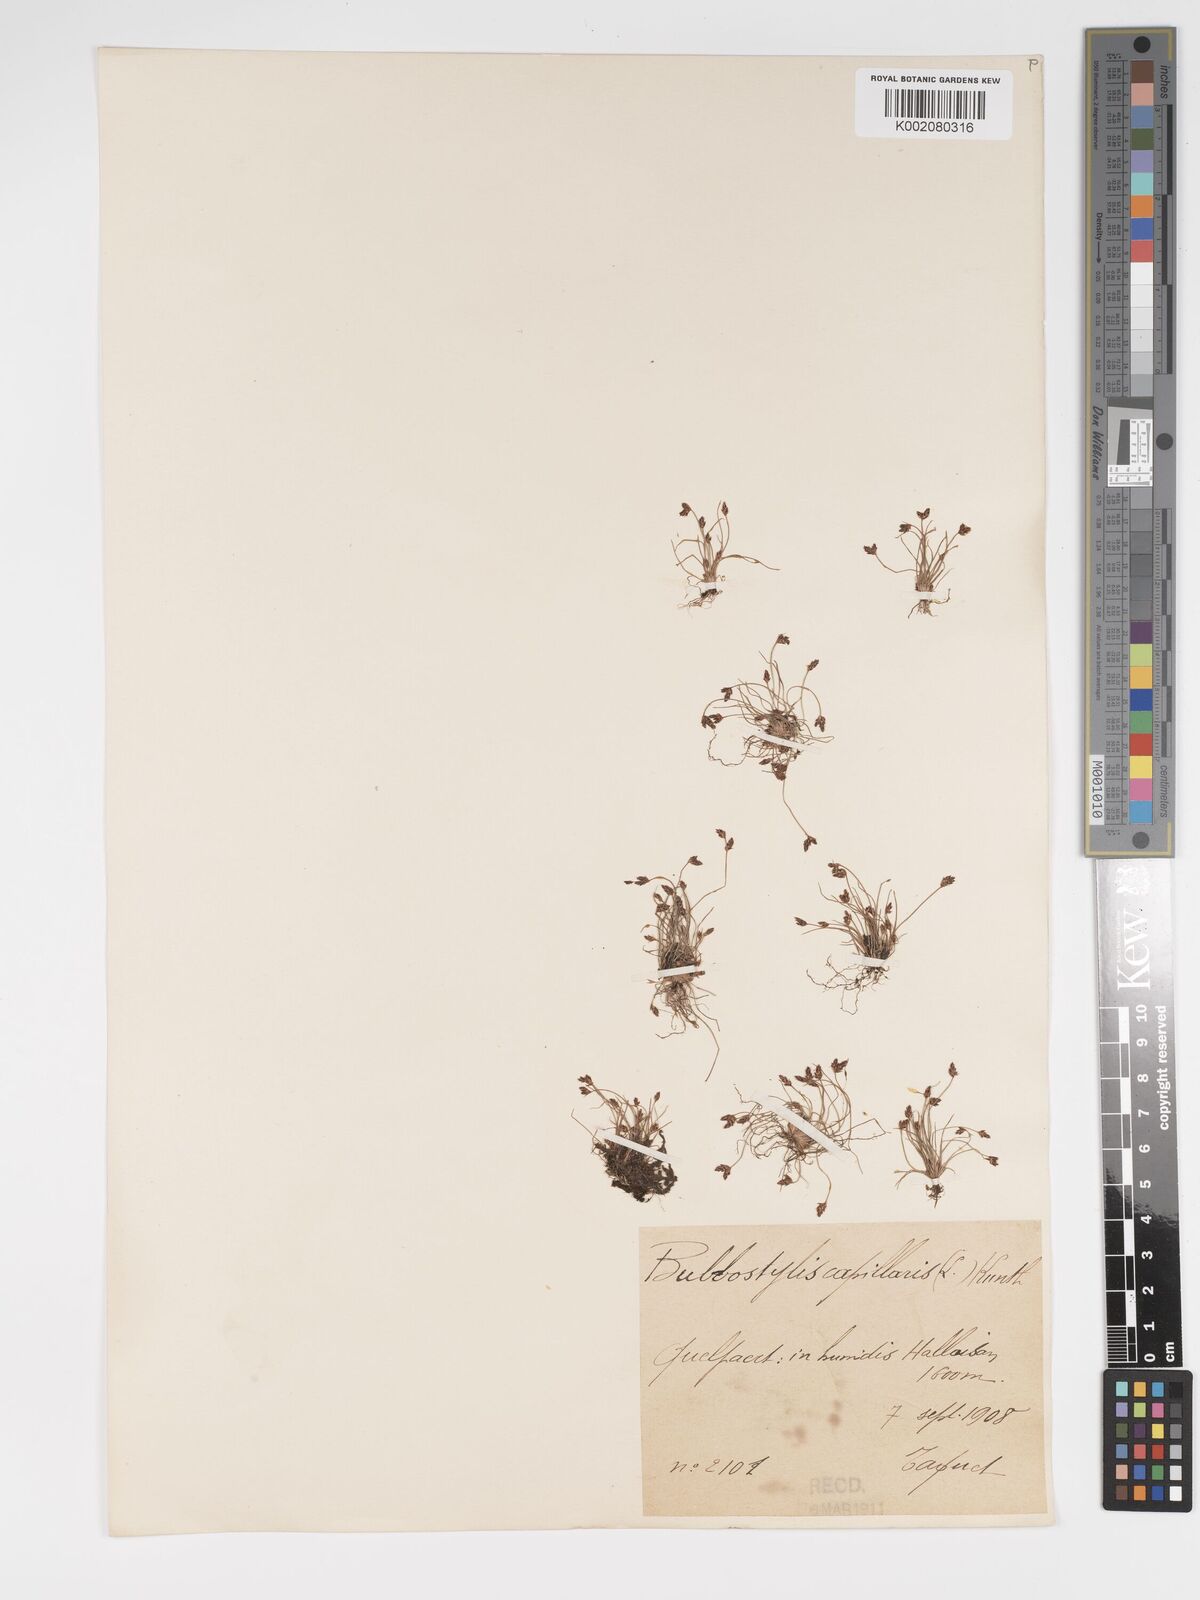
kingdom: Plantae
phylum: Tracheophyta
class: Liliopsida
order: Poales
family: Cyperaceae
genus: Bulbostylis
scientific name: Bulbostylis capillaris
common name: Densetuft hairsedge
